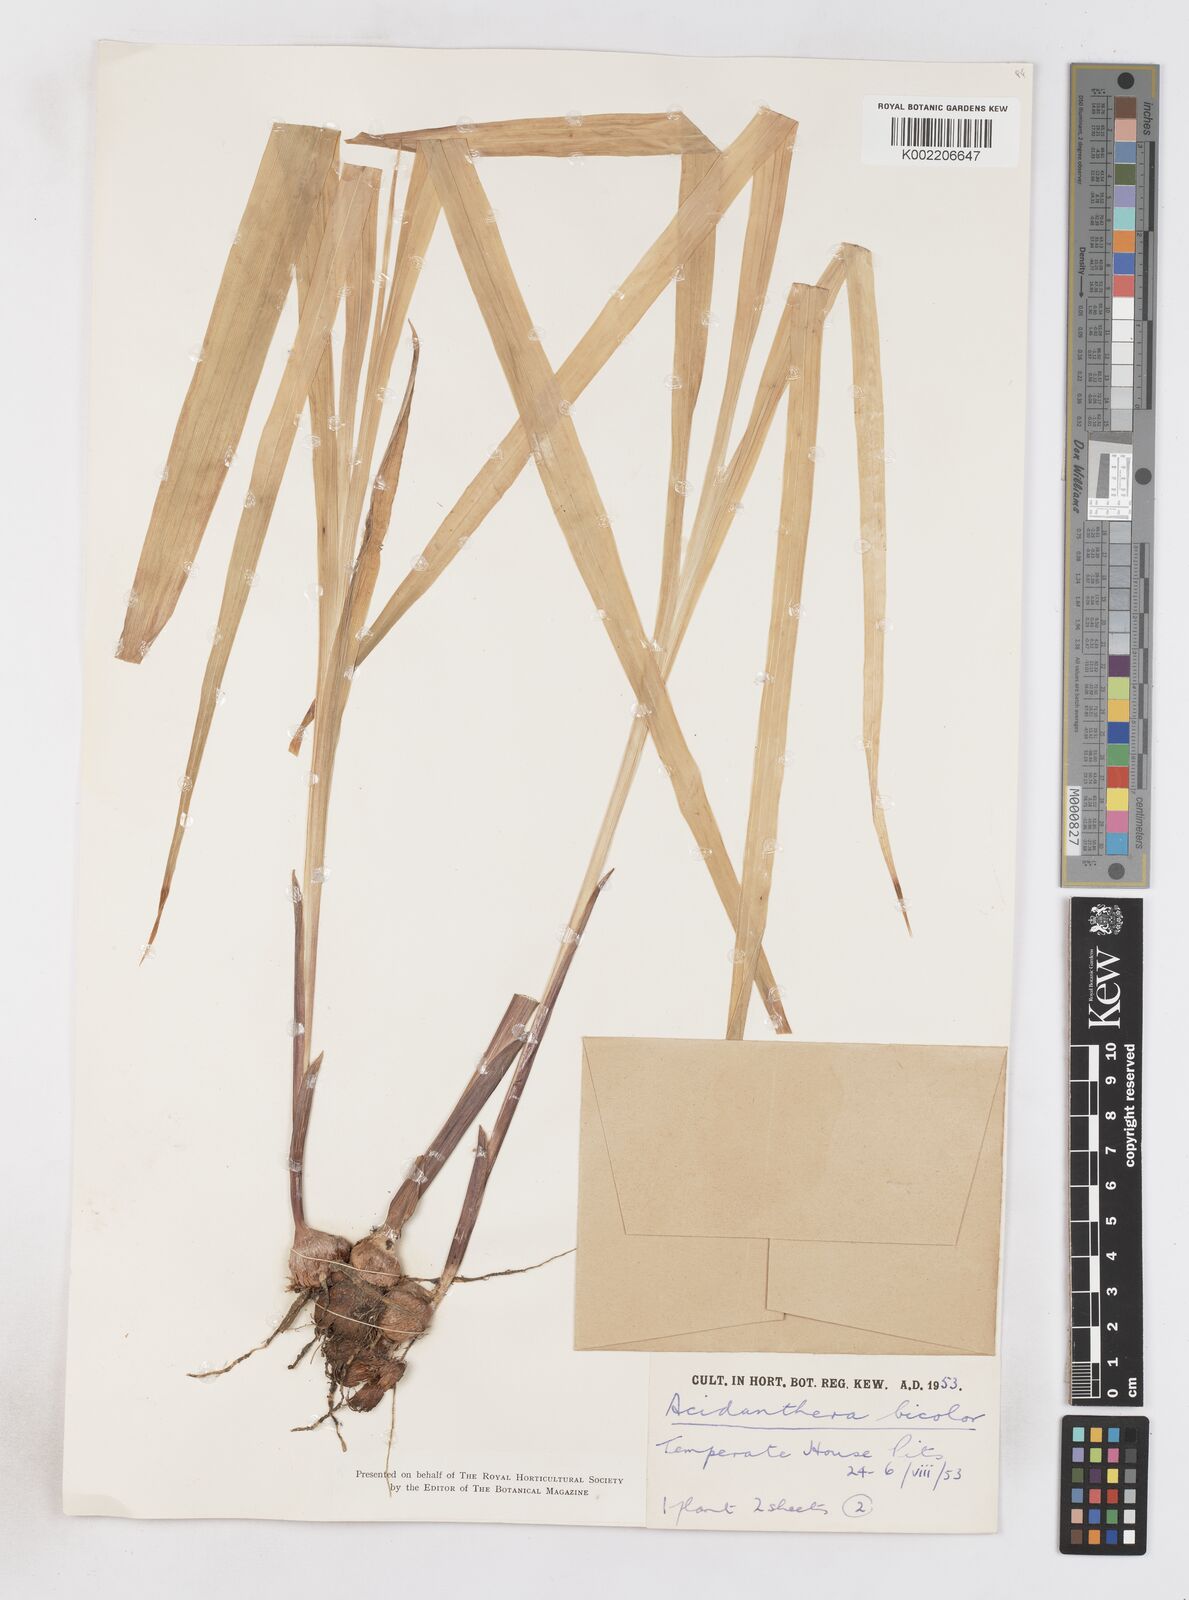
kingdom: Plantae
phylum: Tracheophyta
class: Liliopsida
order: Asparagales
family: Iridaceae
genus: Gladiolus
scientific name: Gladiolus murielae
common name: Acidanthera
